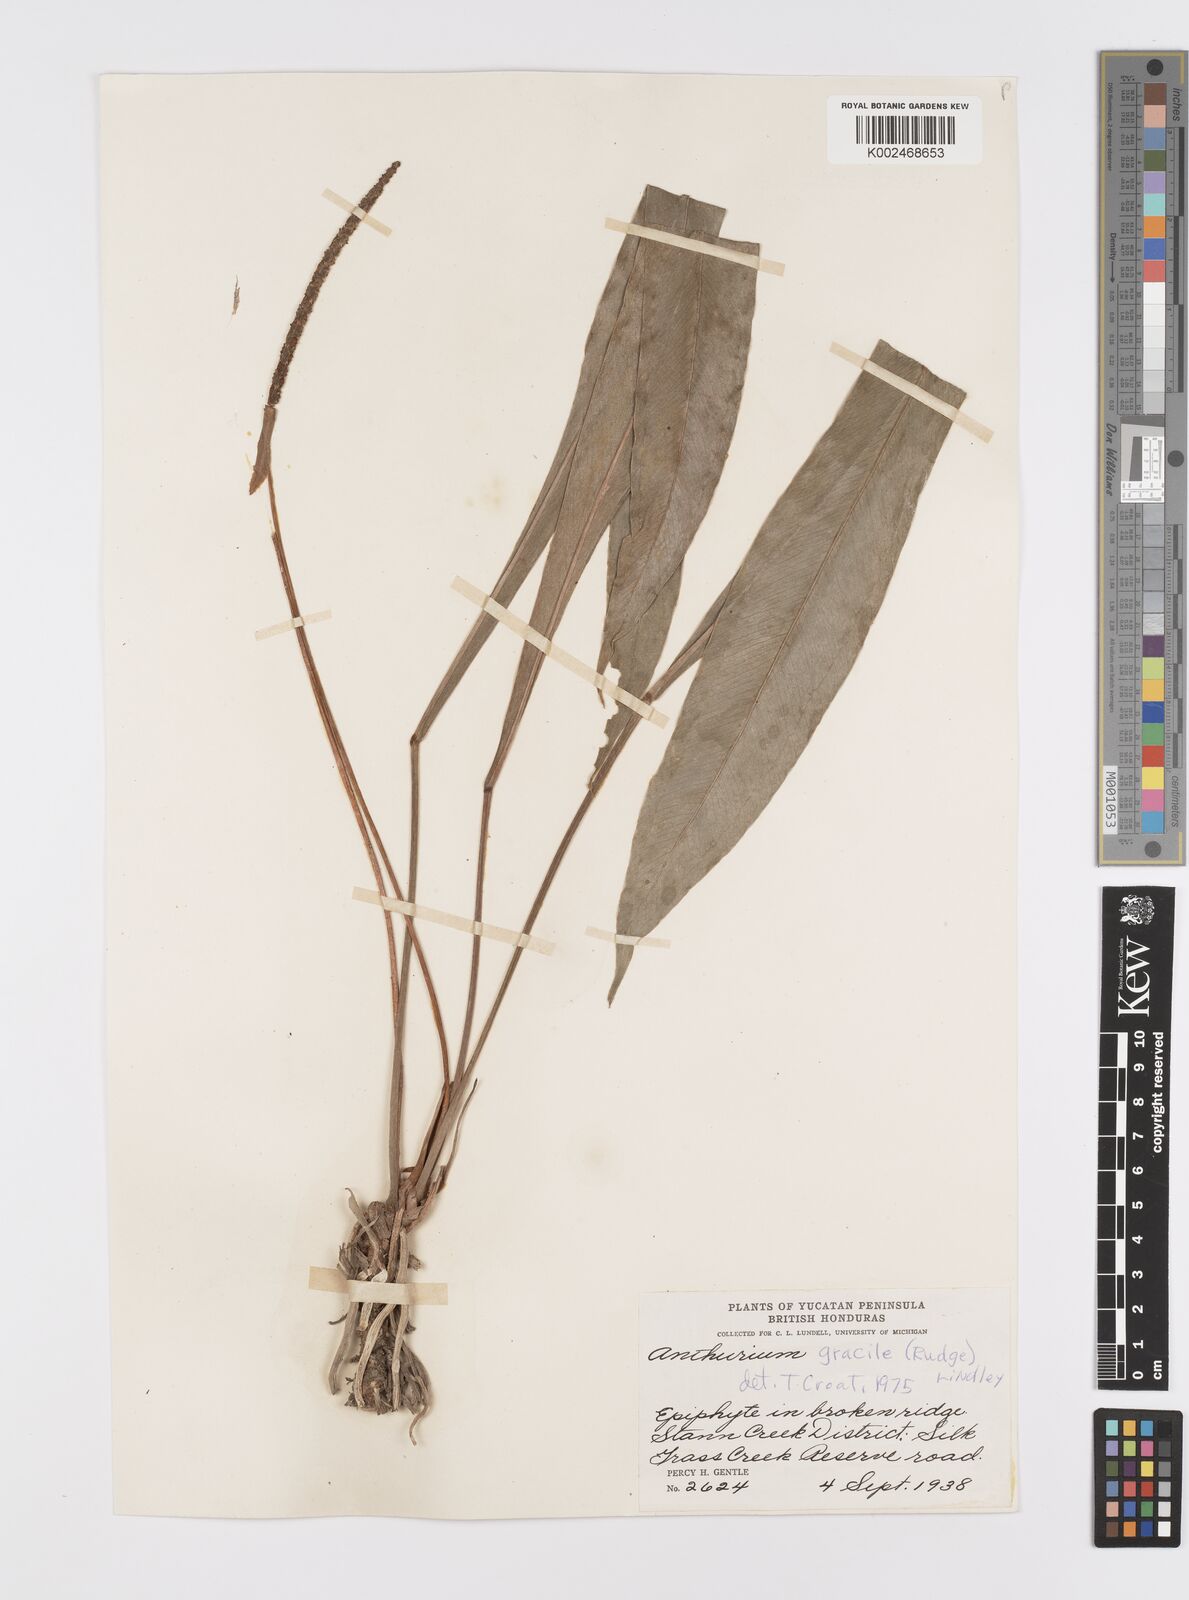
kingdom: Plantae
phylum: Tracheophyta
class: Liliopsida
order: Alismatales
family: Araceae
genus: Anthurium
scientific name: Anthurium gracile
